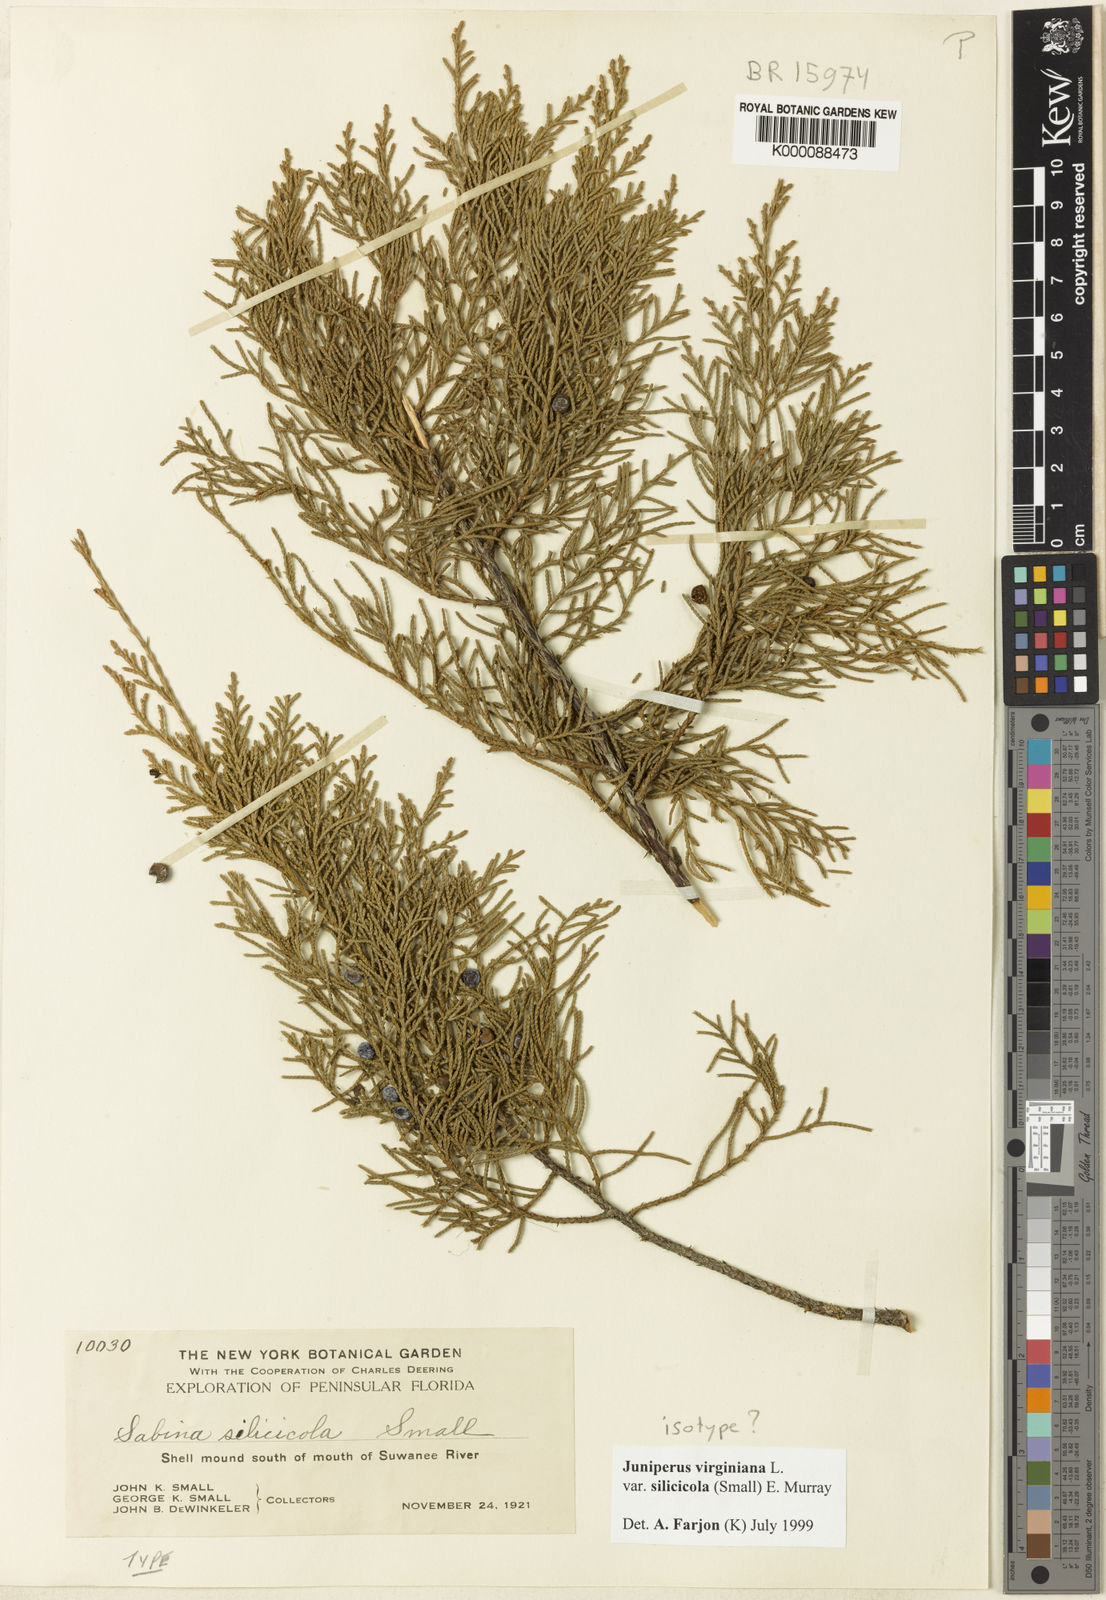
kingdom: Plantae
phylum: Tracheophyta
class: Pinopsida
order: Pinales
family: Cupressaceae
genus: Juniperus
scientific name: Juniperus virginiana
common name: Red juniper
